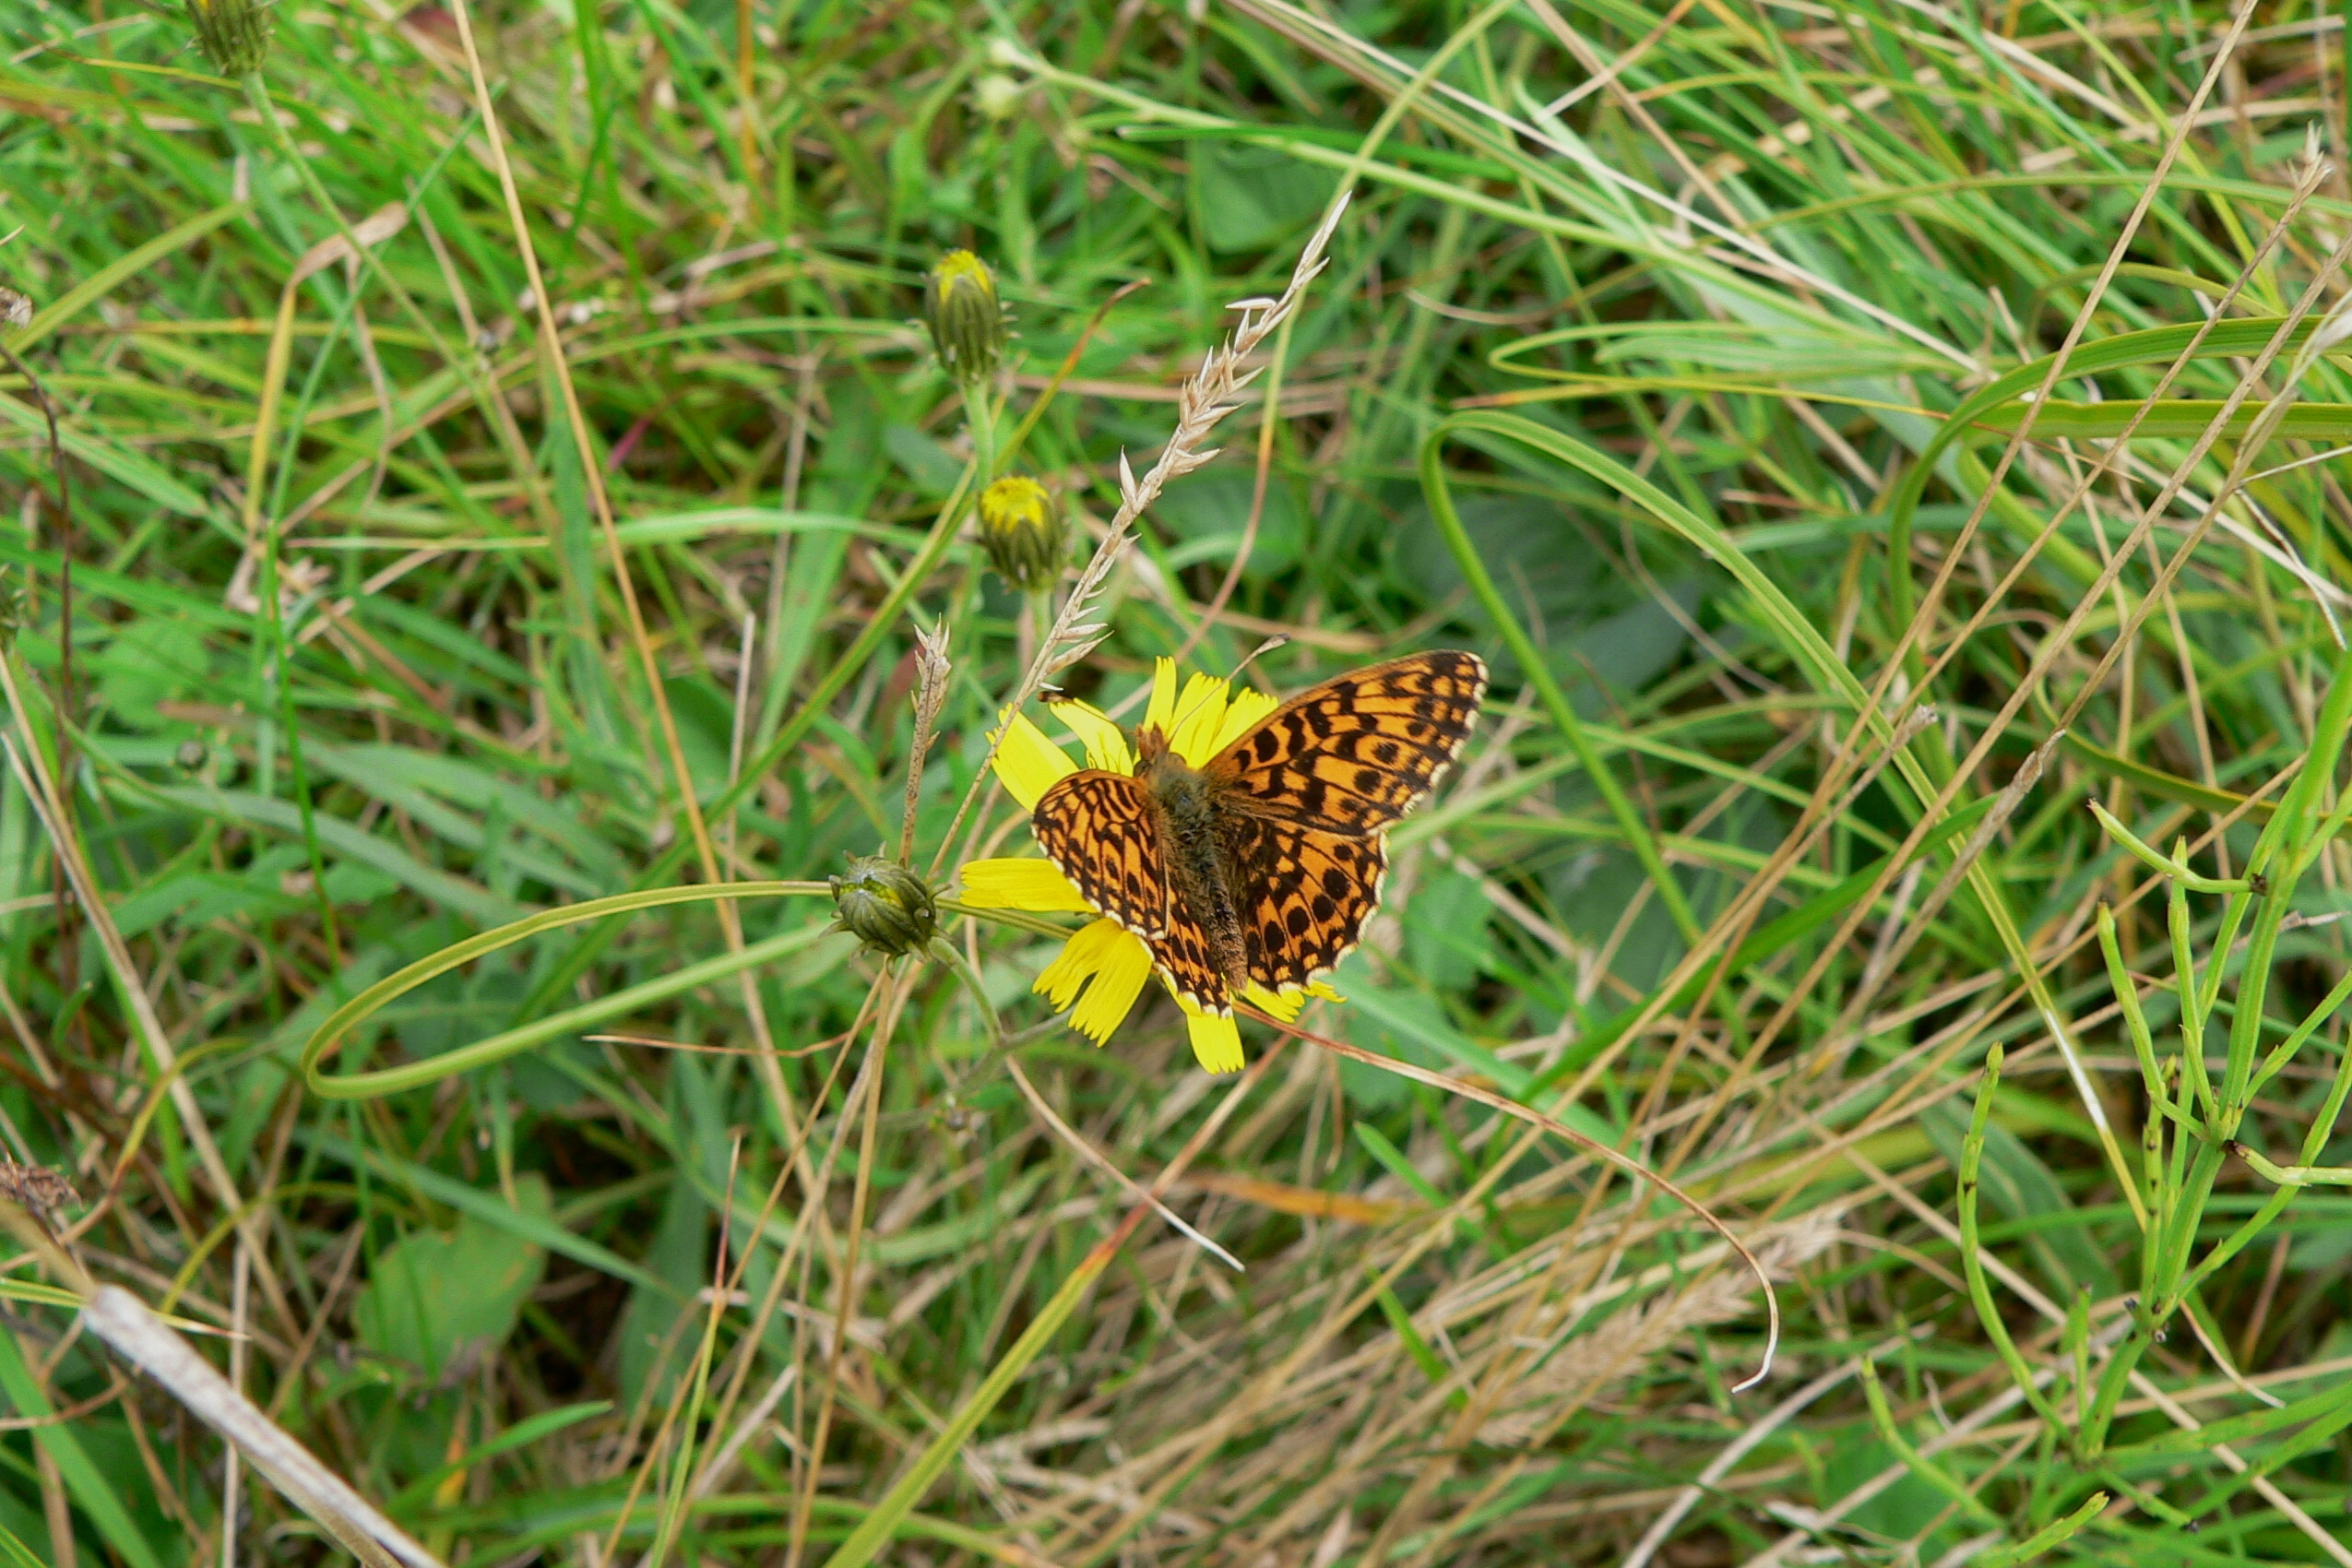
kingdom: Animalia
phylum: Arthropoda
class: Insecta
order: Lepidoptera
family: Nymphalidae
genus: Boloria
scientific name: Boloria dia
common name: Violet perlemorsommerfugl
